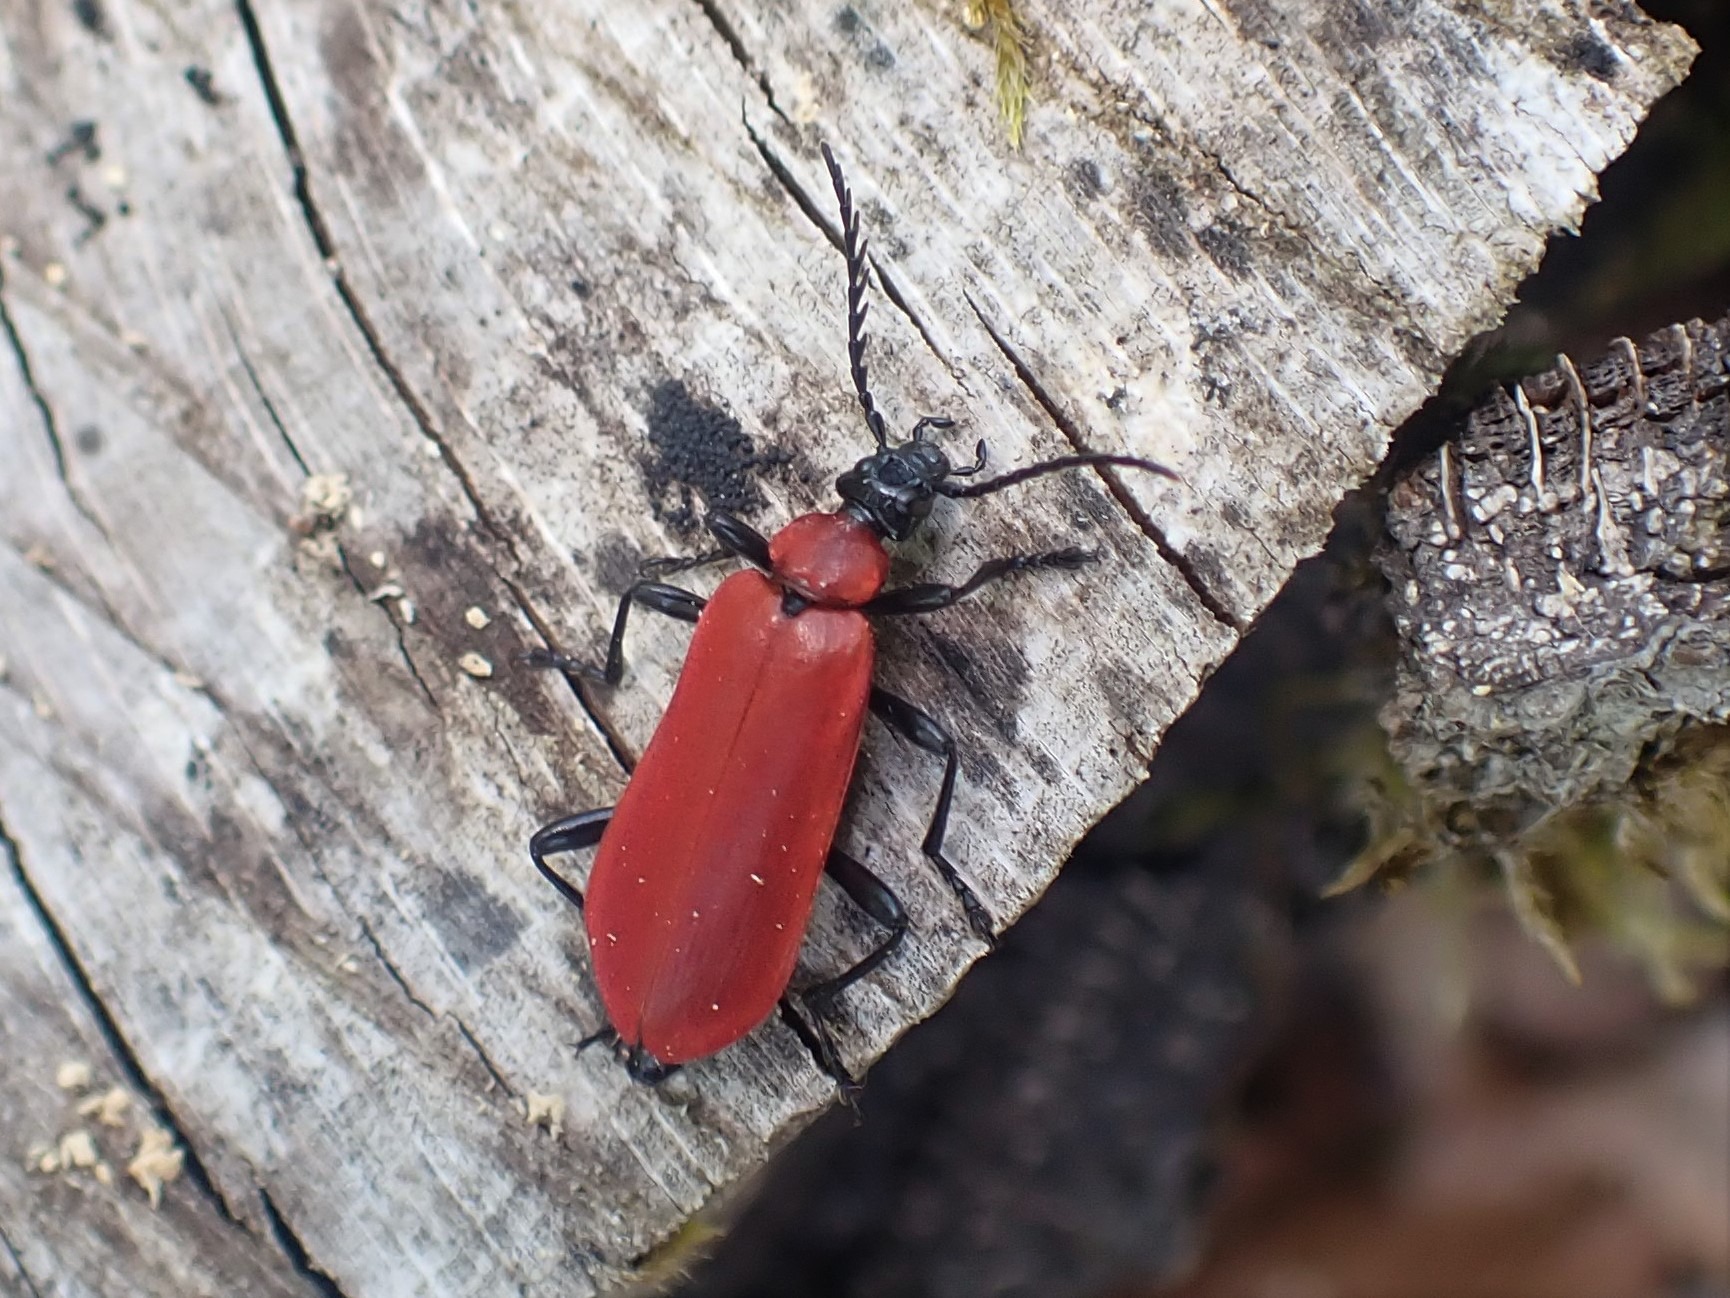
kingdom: Animalia
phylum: Arthropoda
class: Insecta
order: Coleoptera
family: Pyrochroidae
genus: Pyrochroa
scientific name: Pyrochroa coccinea
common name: Sorthovedet kardinalbille
